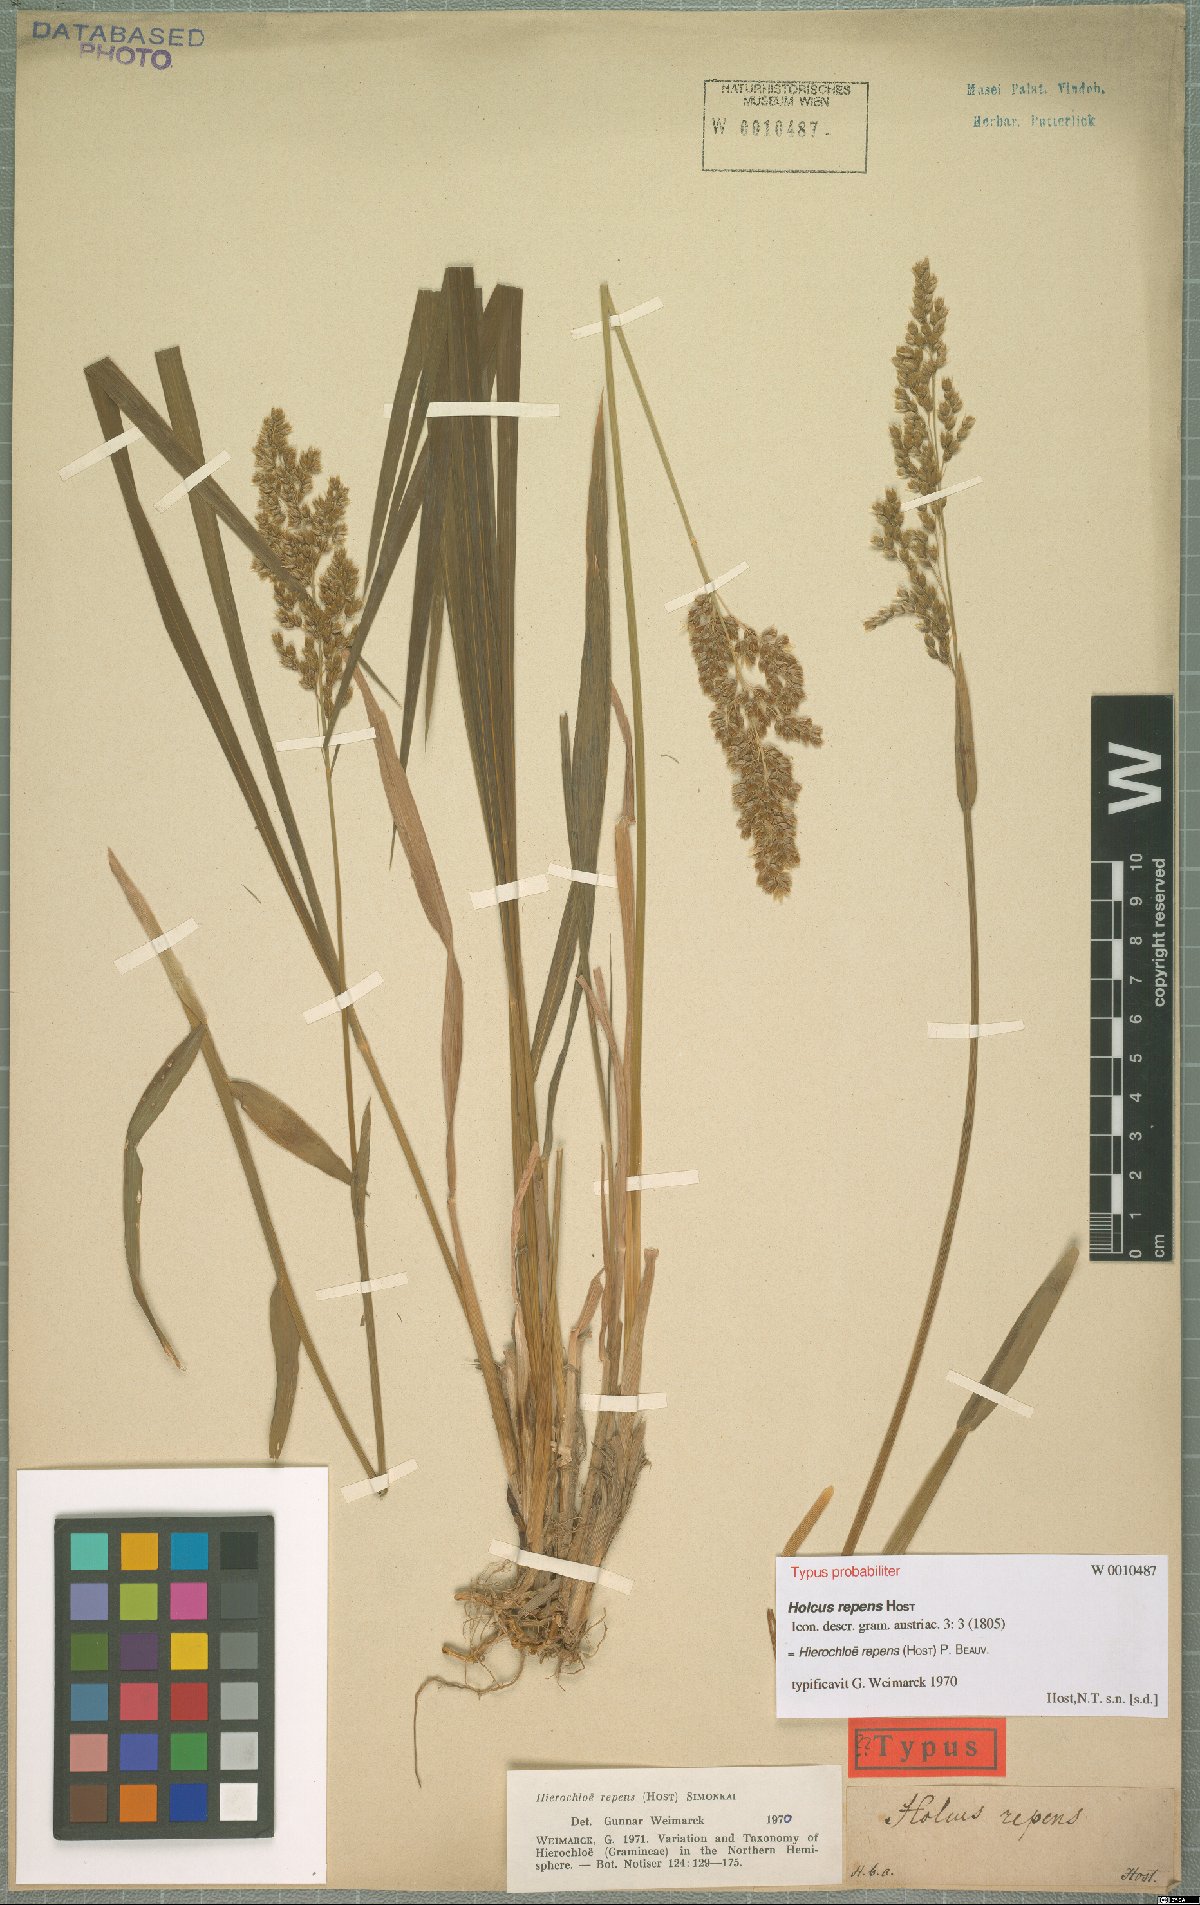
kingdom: Plantae
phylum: Tracheophyta
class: Liliopsida
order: Poales
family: Poaceae
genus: Anthoxanthum
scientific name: Anthoxanthum repens
